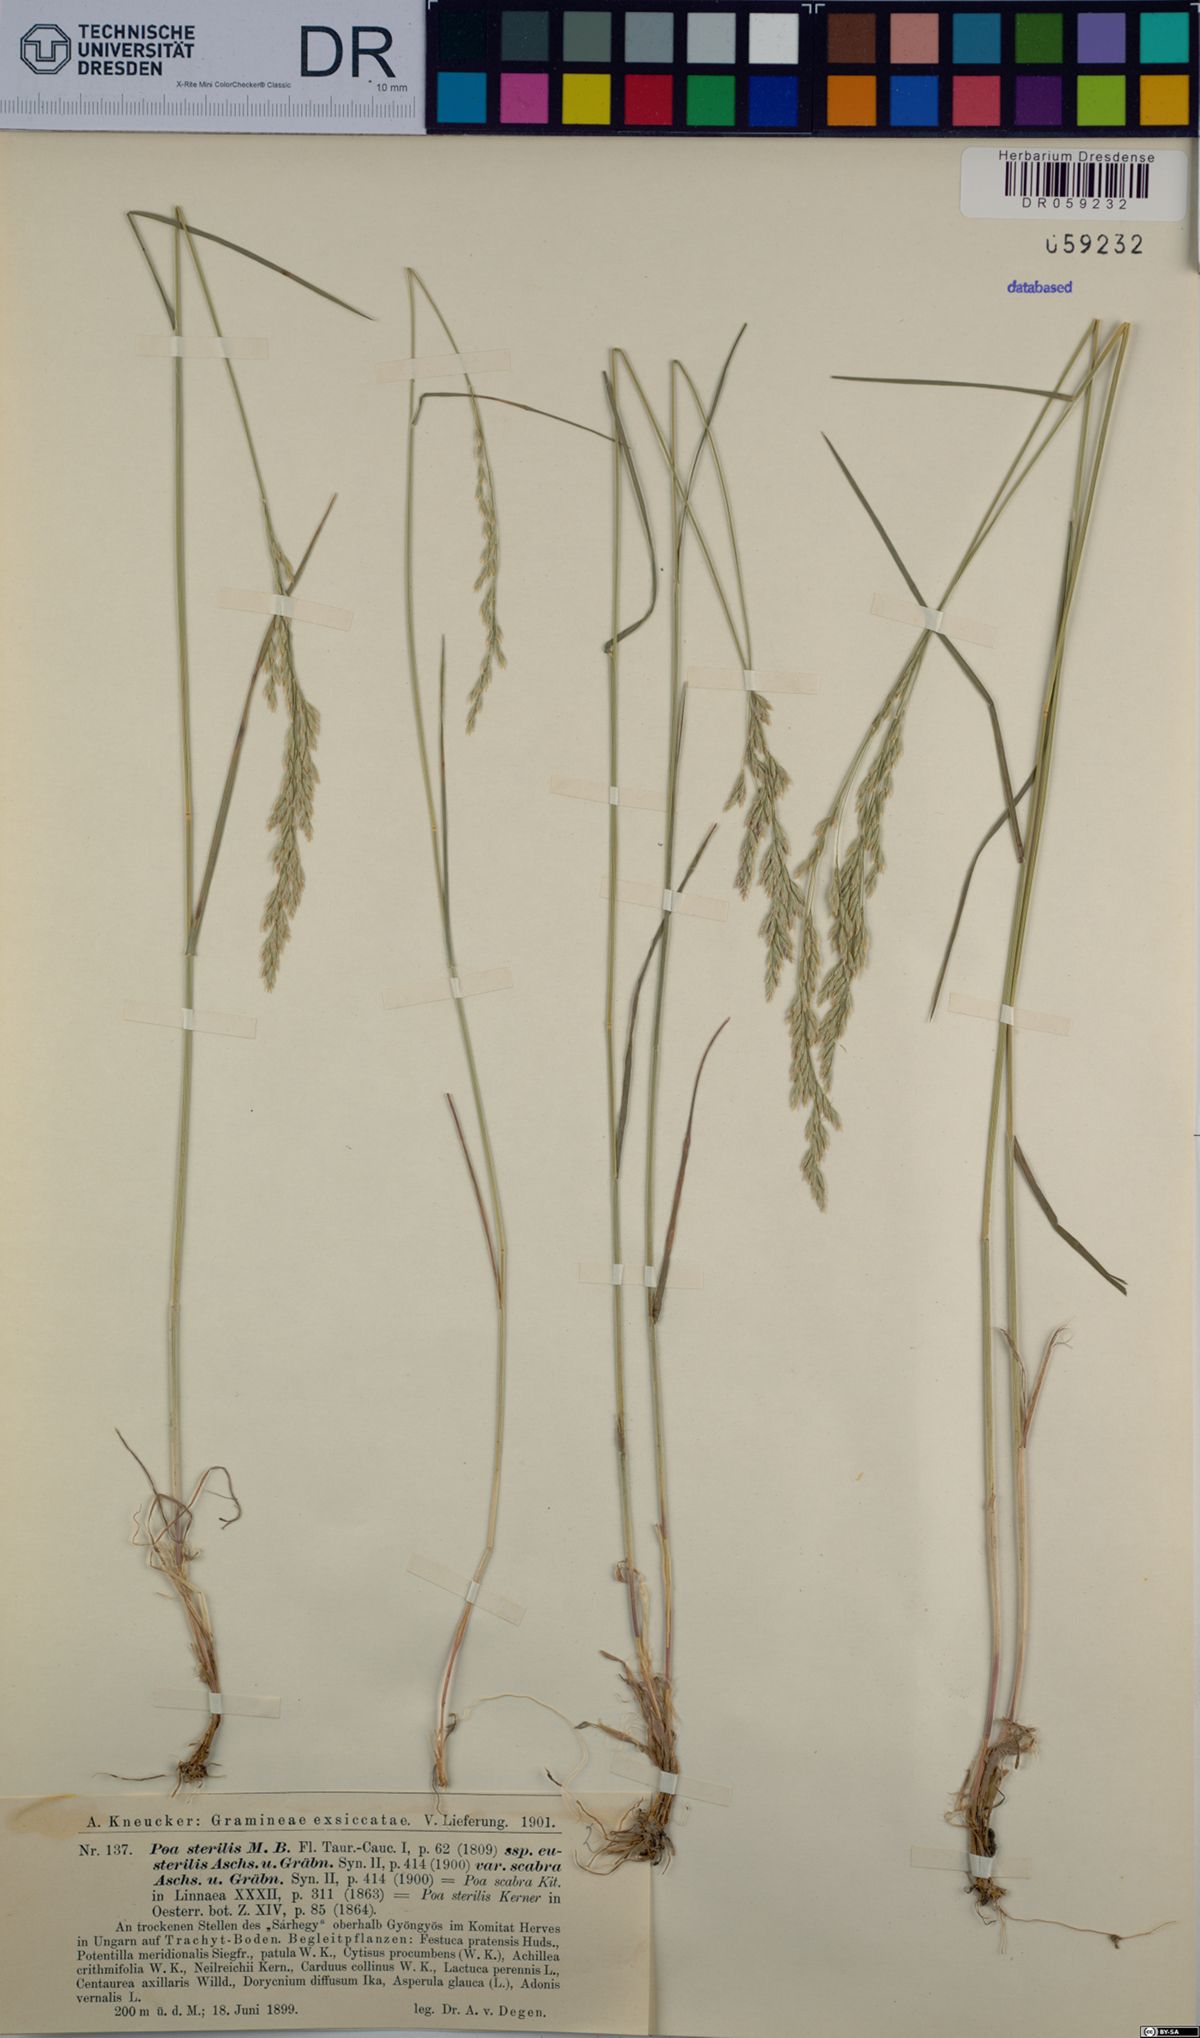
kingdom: Plantae
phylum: Tracheophyta
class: Liliopsida
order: Poales
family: Poaceae
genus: Poa
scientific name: Poa sterilis
